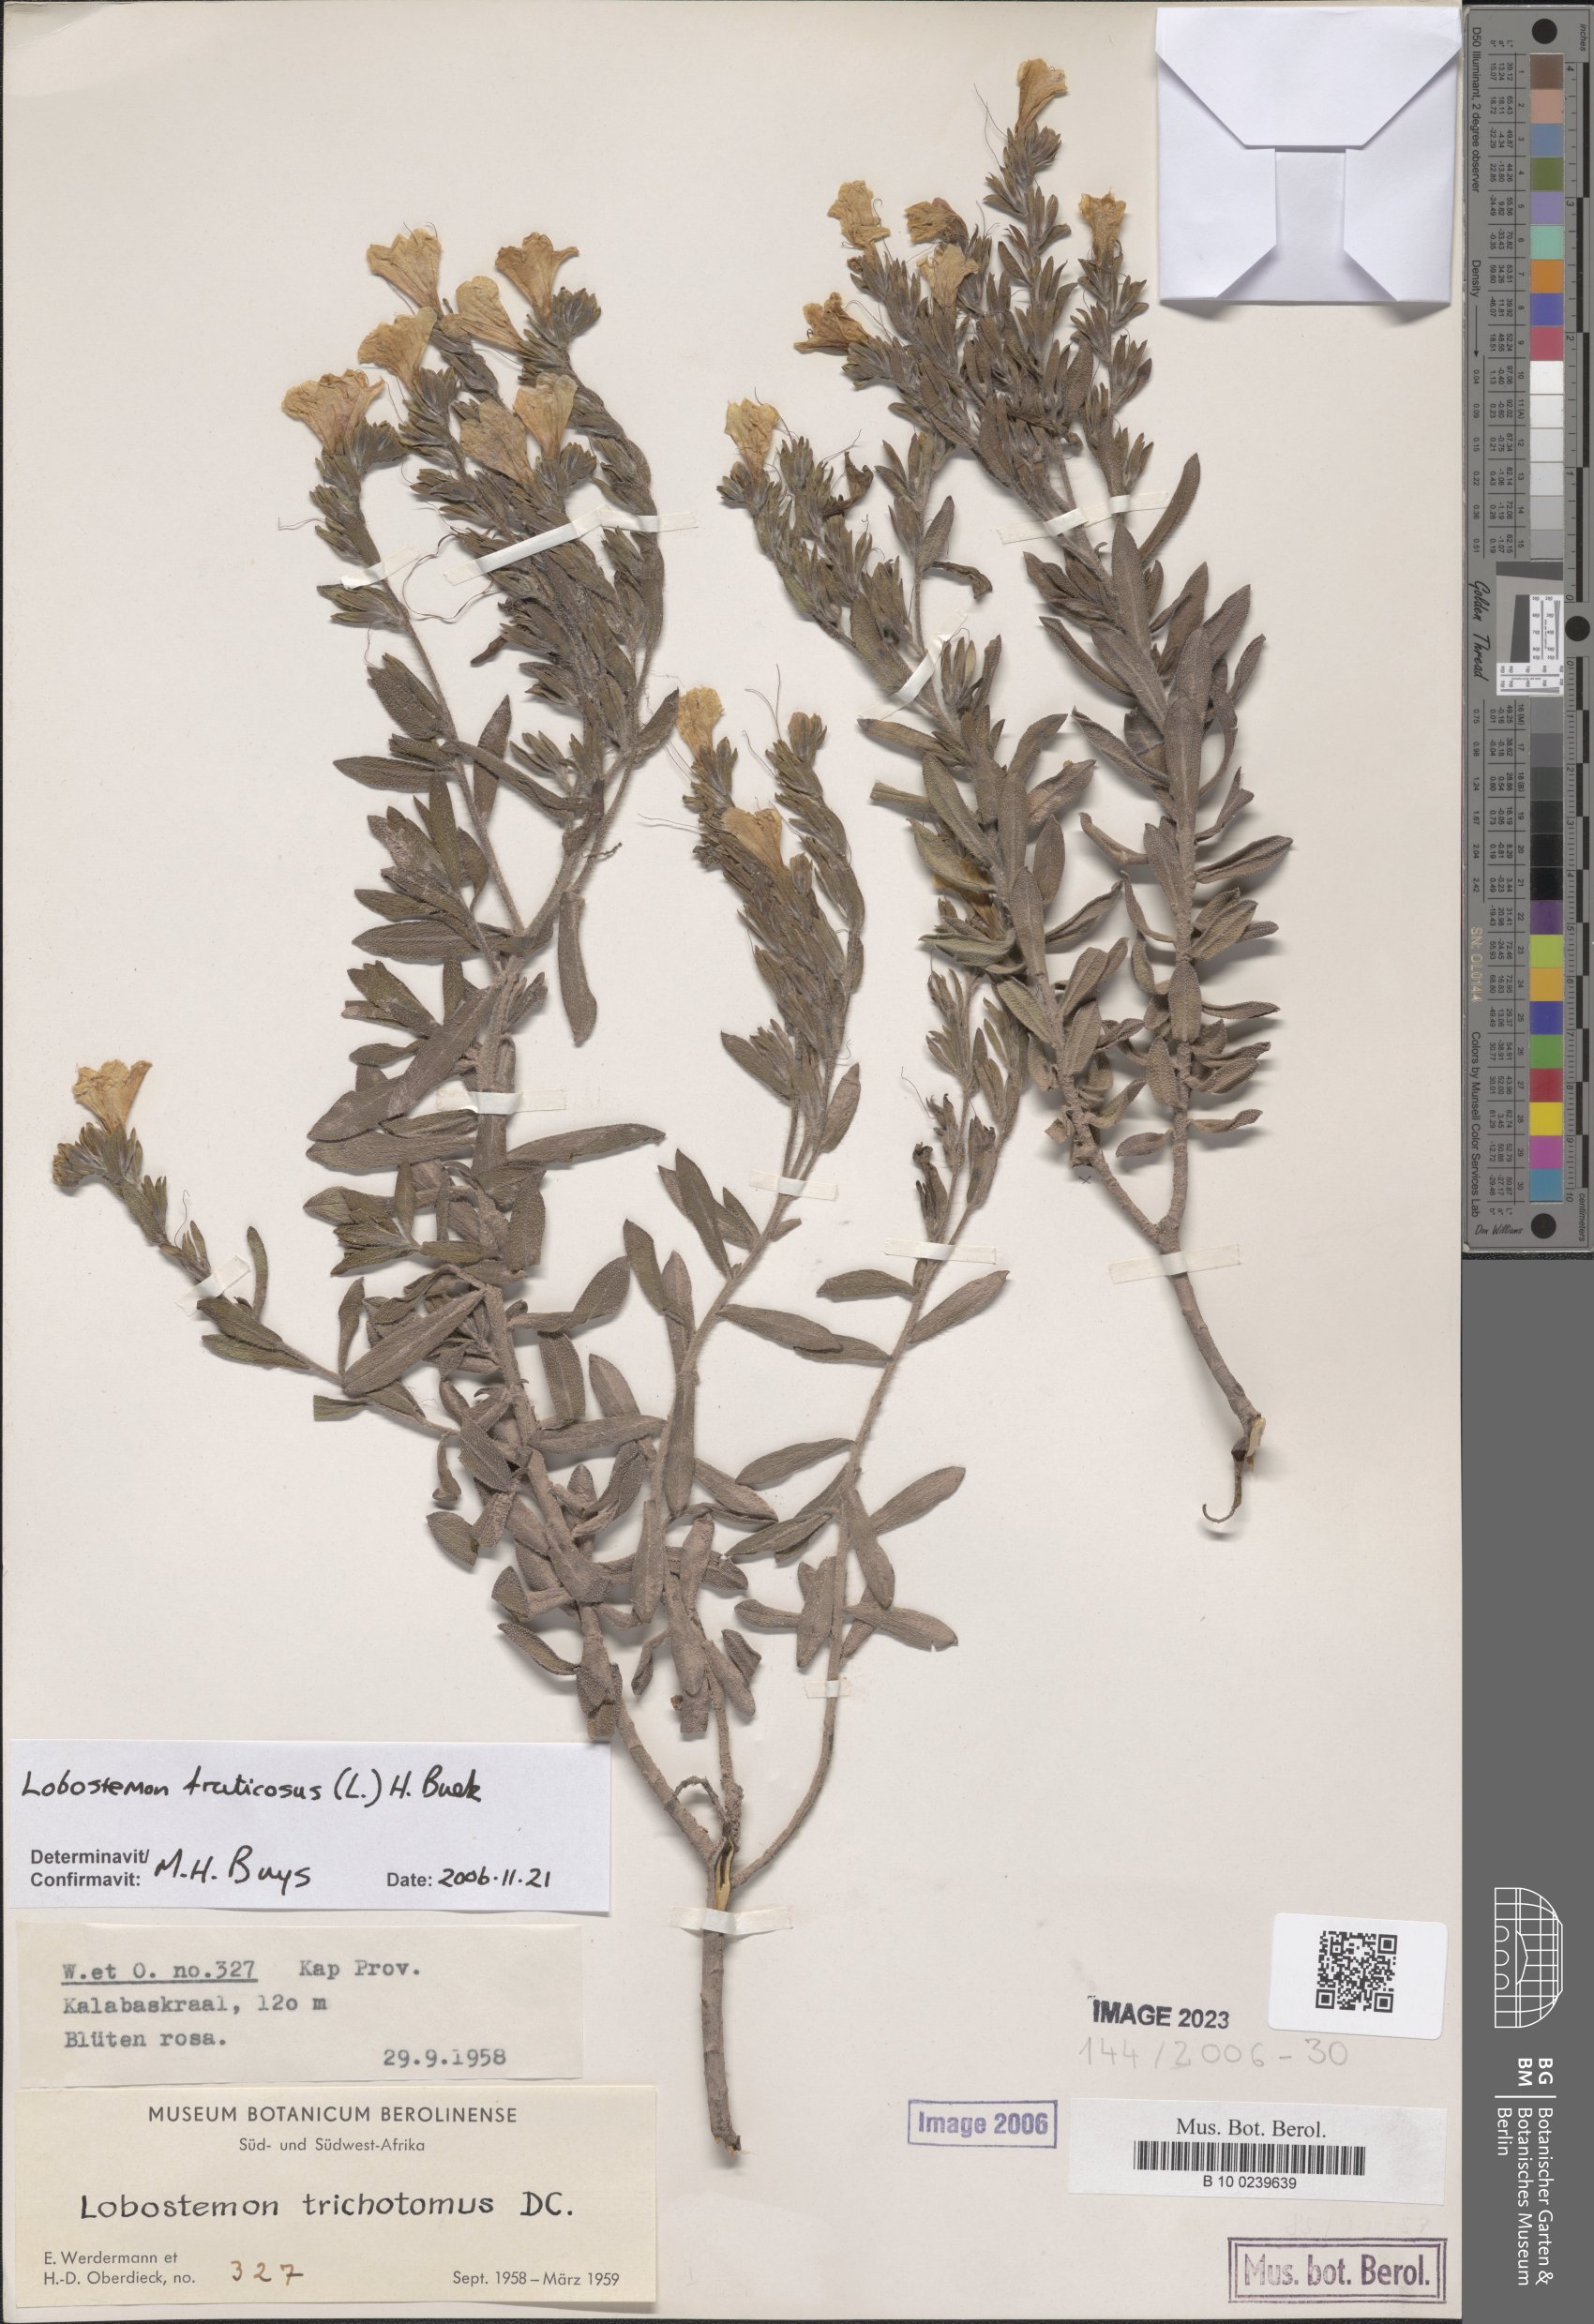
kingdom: Plantae
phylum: Tracheophyta
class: Magnoliopsida
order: Boraginales
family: Boraginaceae
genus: Lobostemon
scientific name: Lobostemon trichotomus
